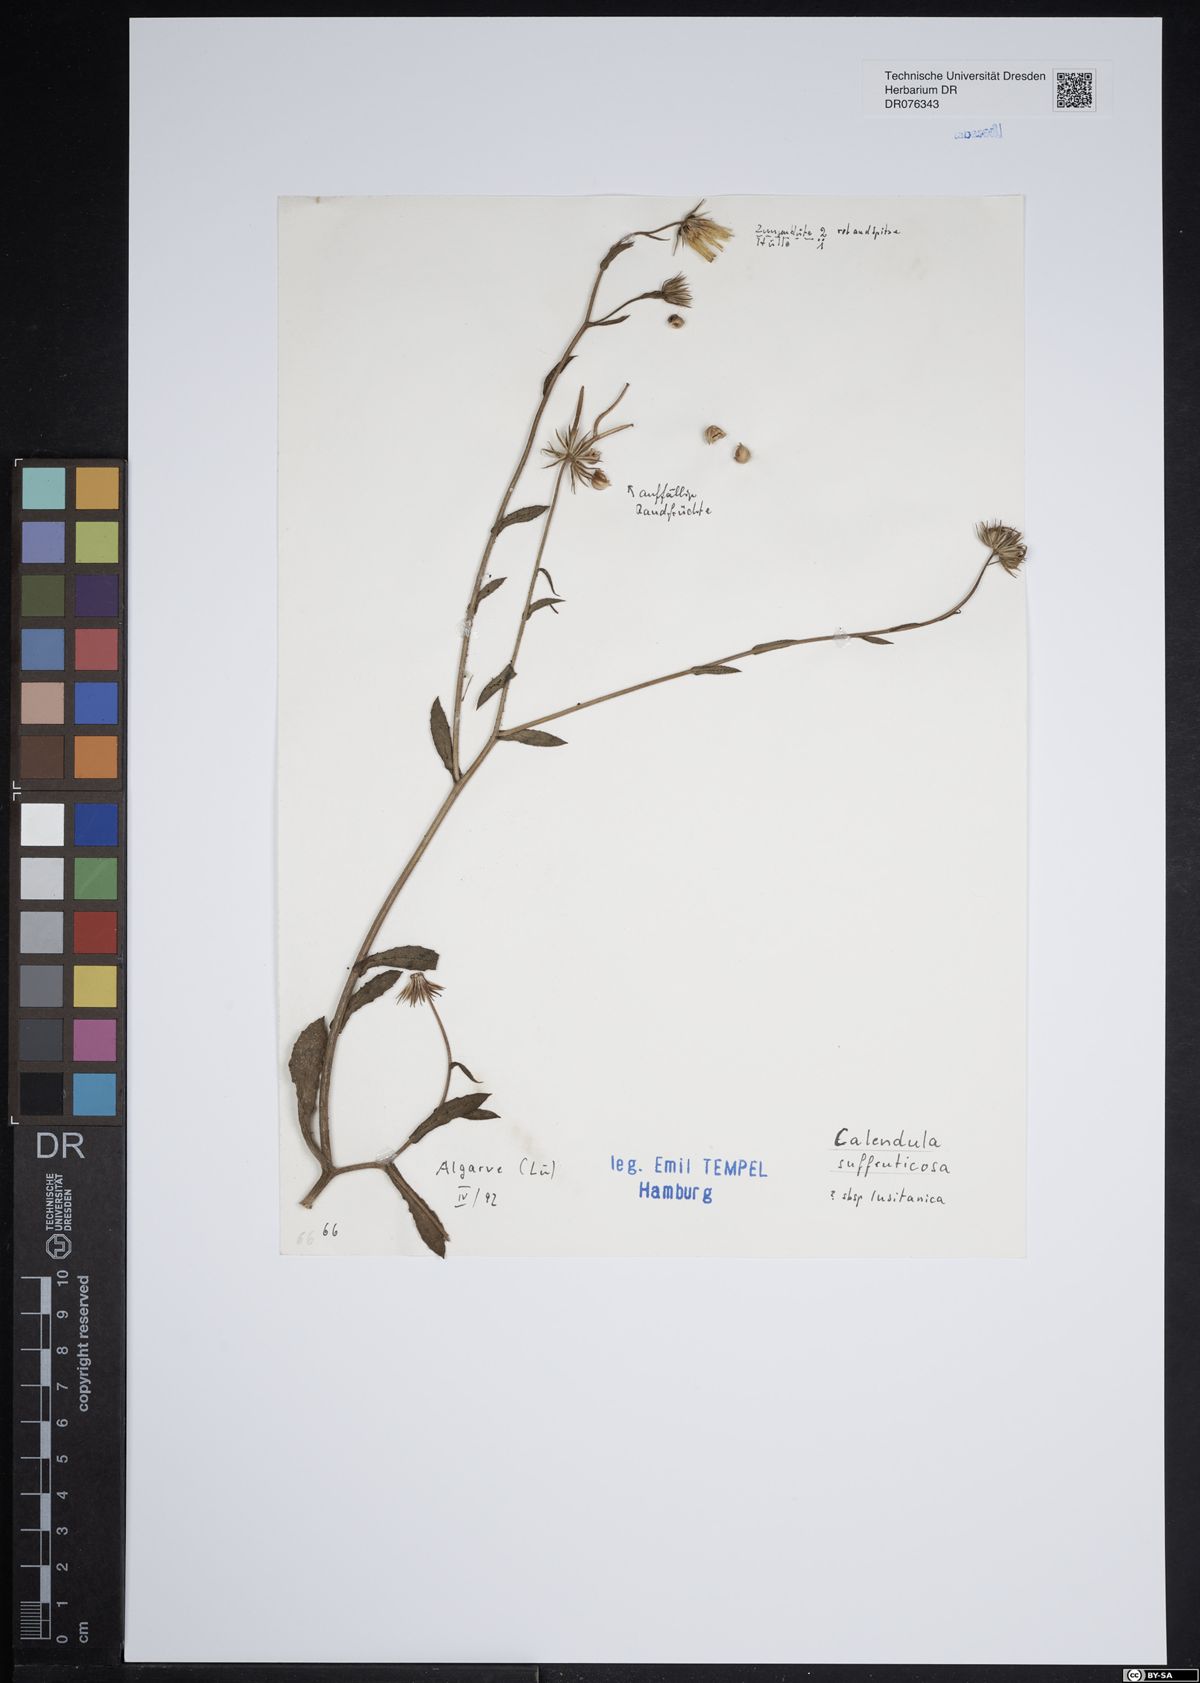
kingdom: Plantae
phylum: Tracheophyta
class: Magnoliopsida
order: Asterales
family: Asteraceae
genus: Calendula
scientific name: Calendula suffruticosa
